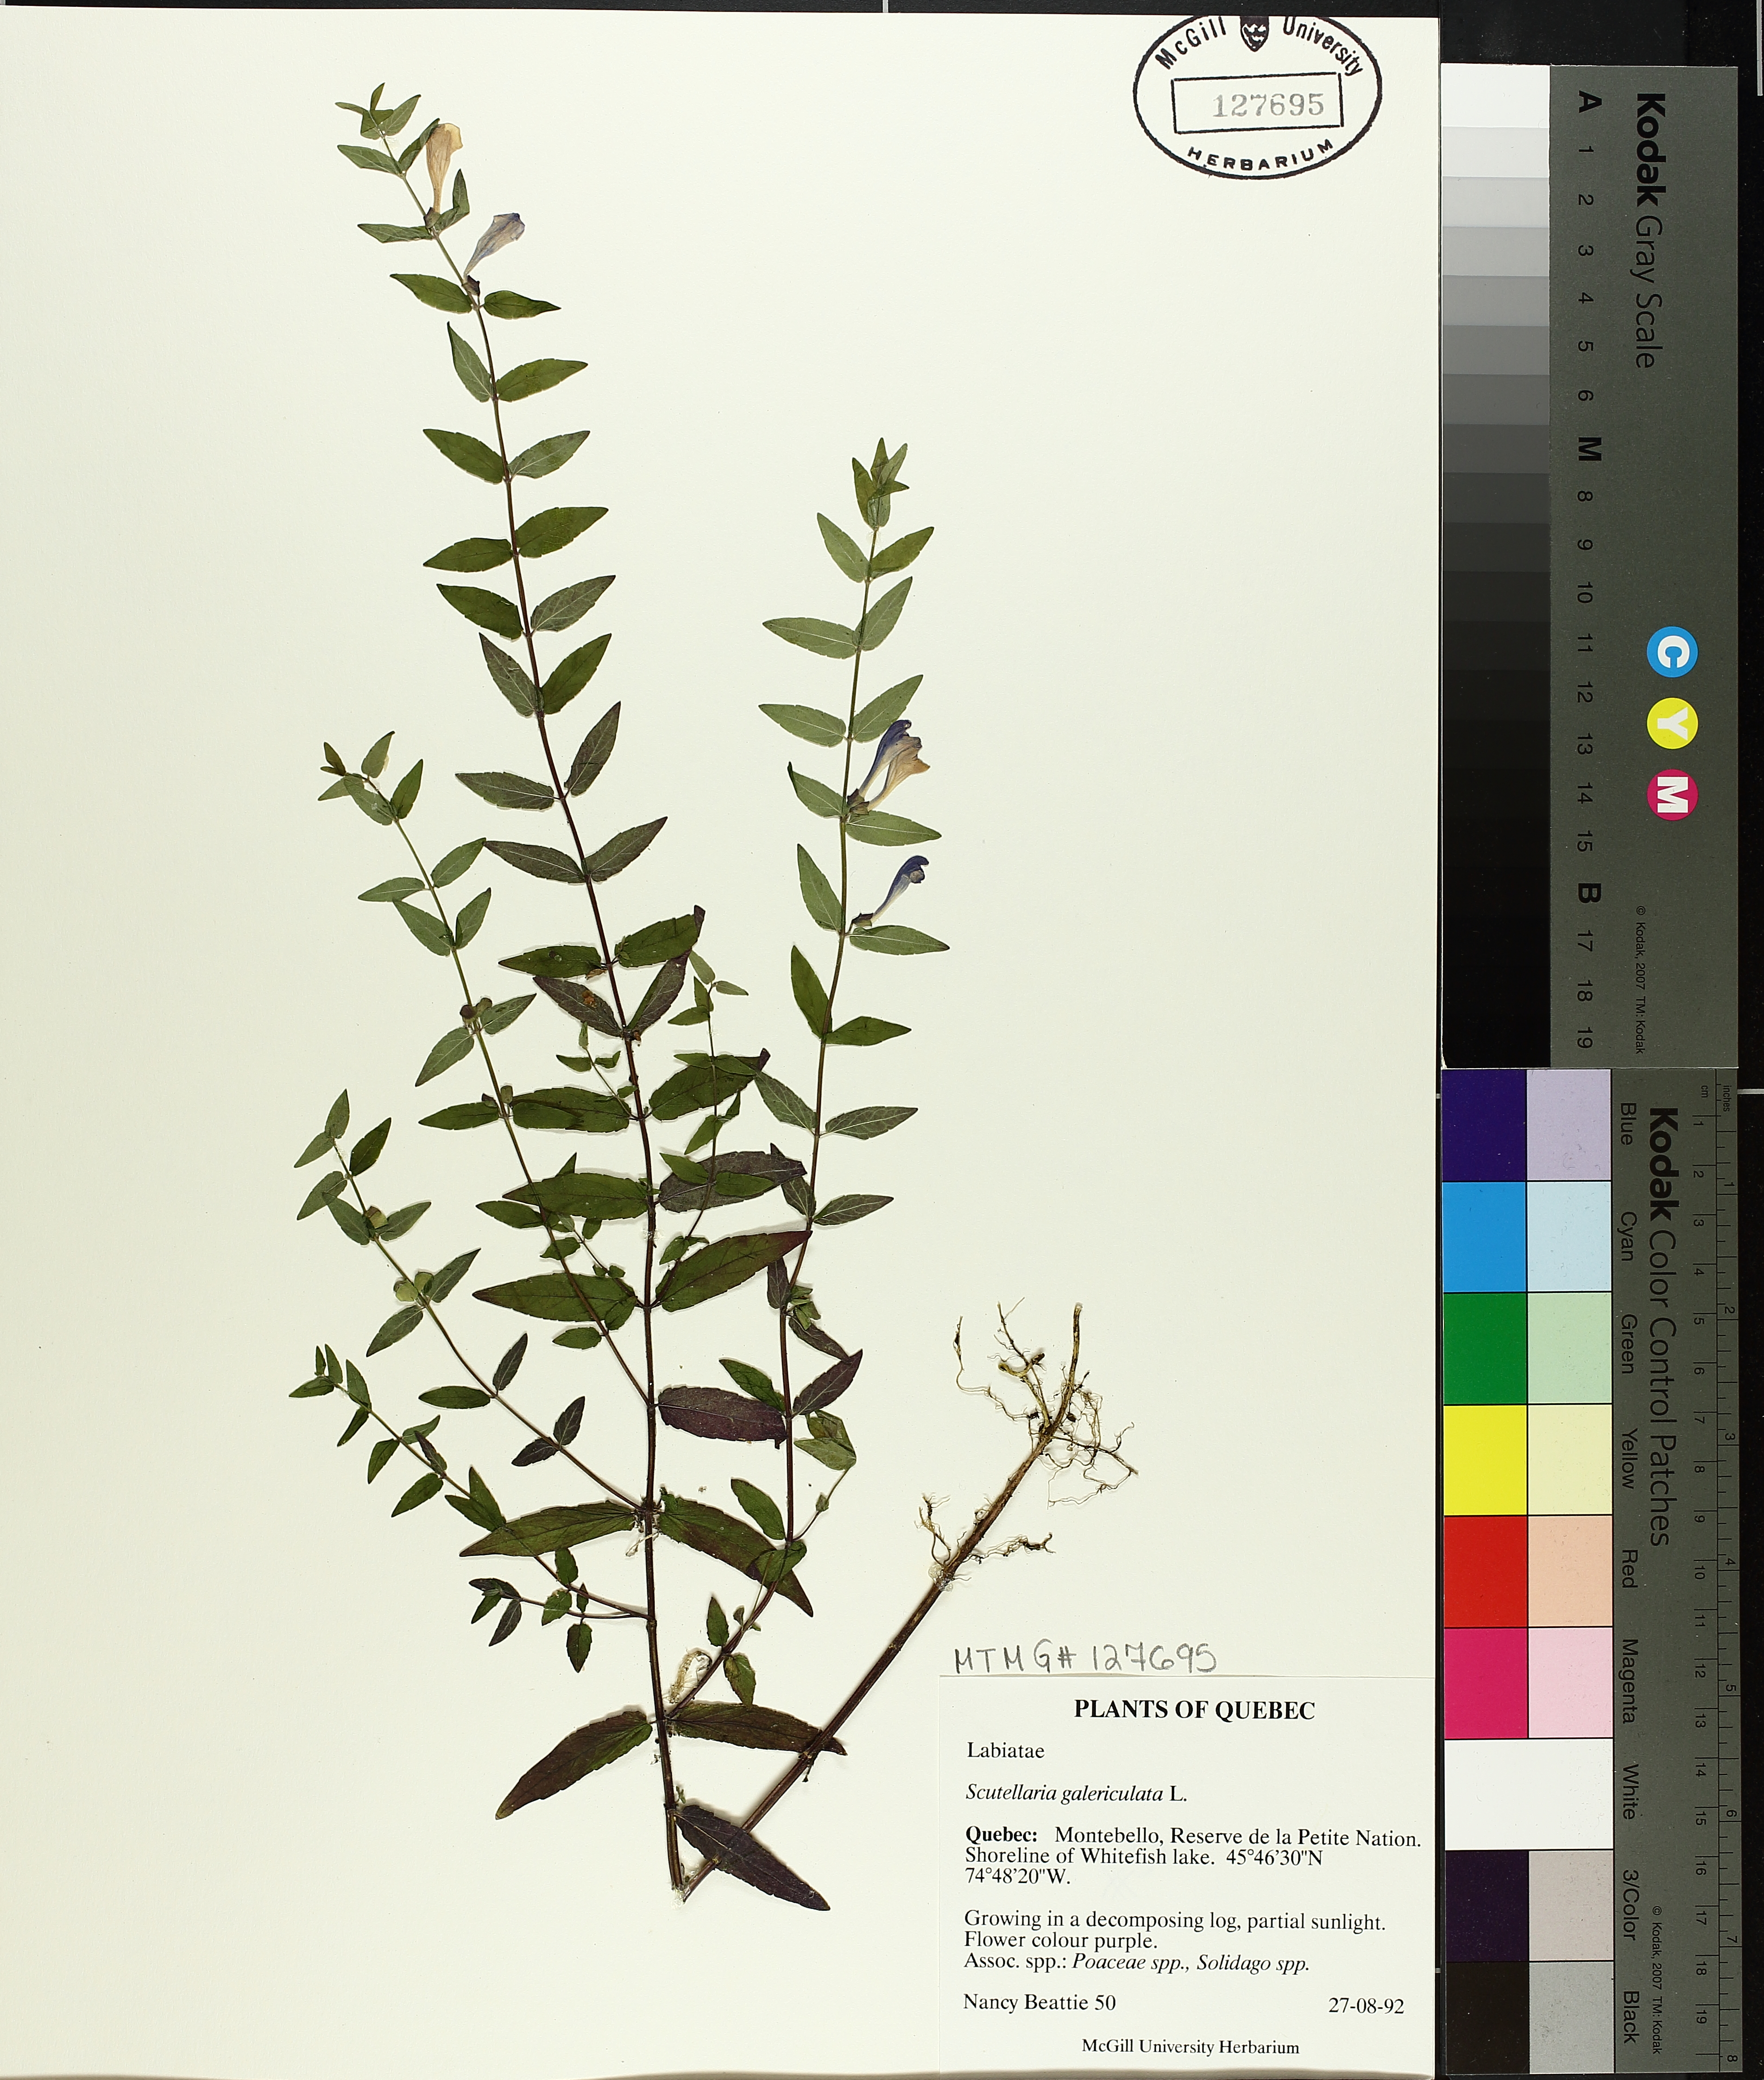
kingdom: Plantae
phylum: Tracheophyta
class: Magnoliopsida
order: Lamiales
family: Lamiaceae
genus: Scutellaria
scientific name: Scutellaria galericulata
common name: Skullcap
